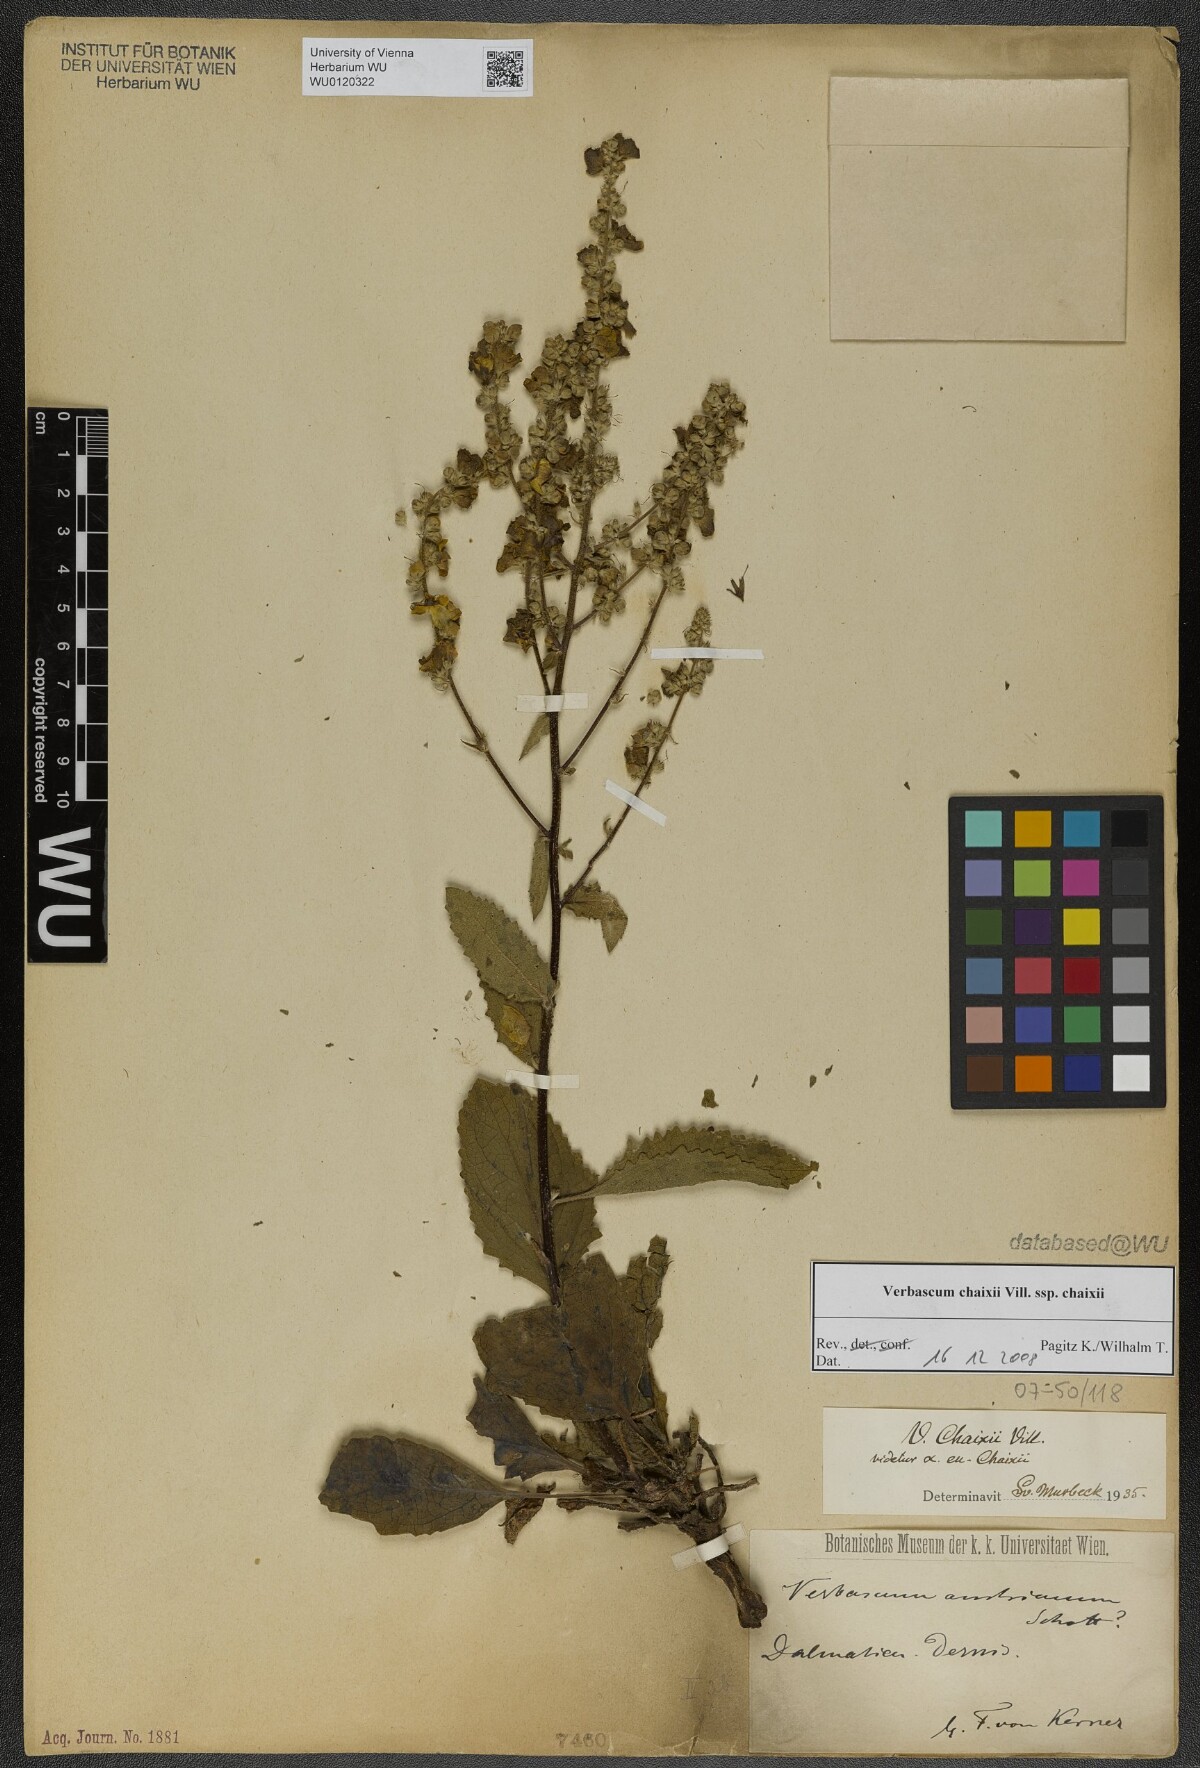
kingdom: Plantae
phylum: Tracheophyta
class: Magnoliopsida
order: Lamiales
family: Scrophulariaceae
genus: Verbascum
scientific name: Verbascum chaixii
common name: Nettle-leaved mullein
